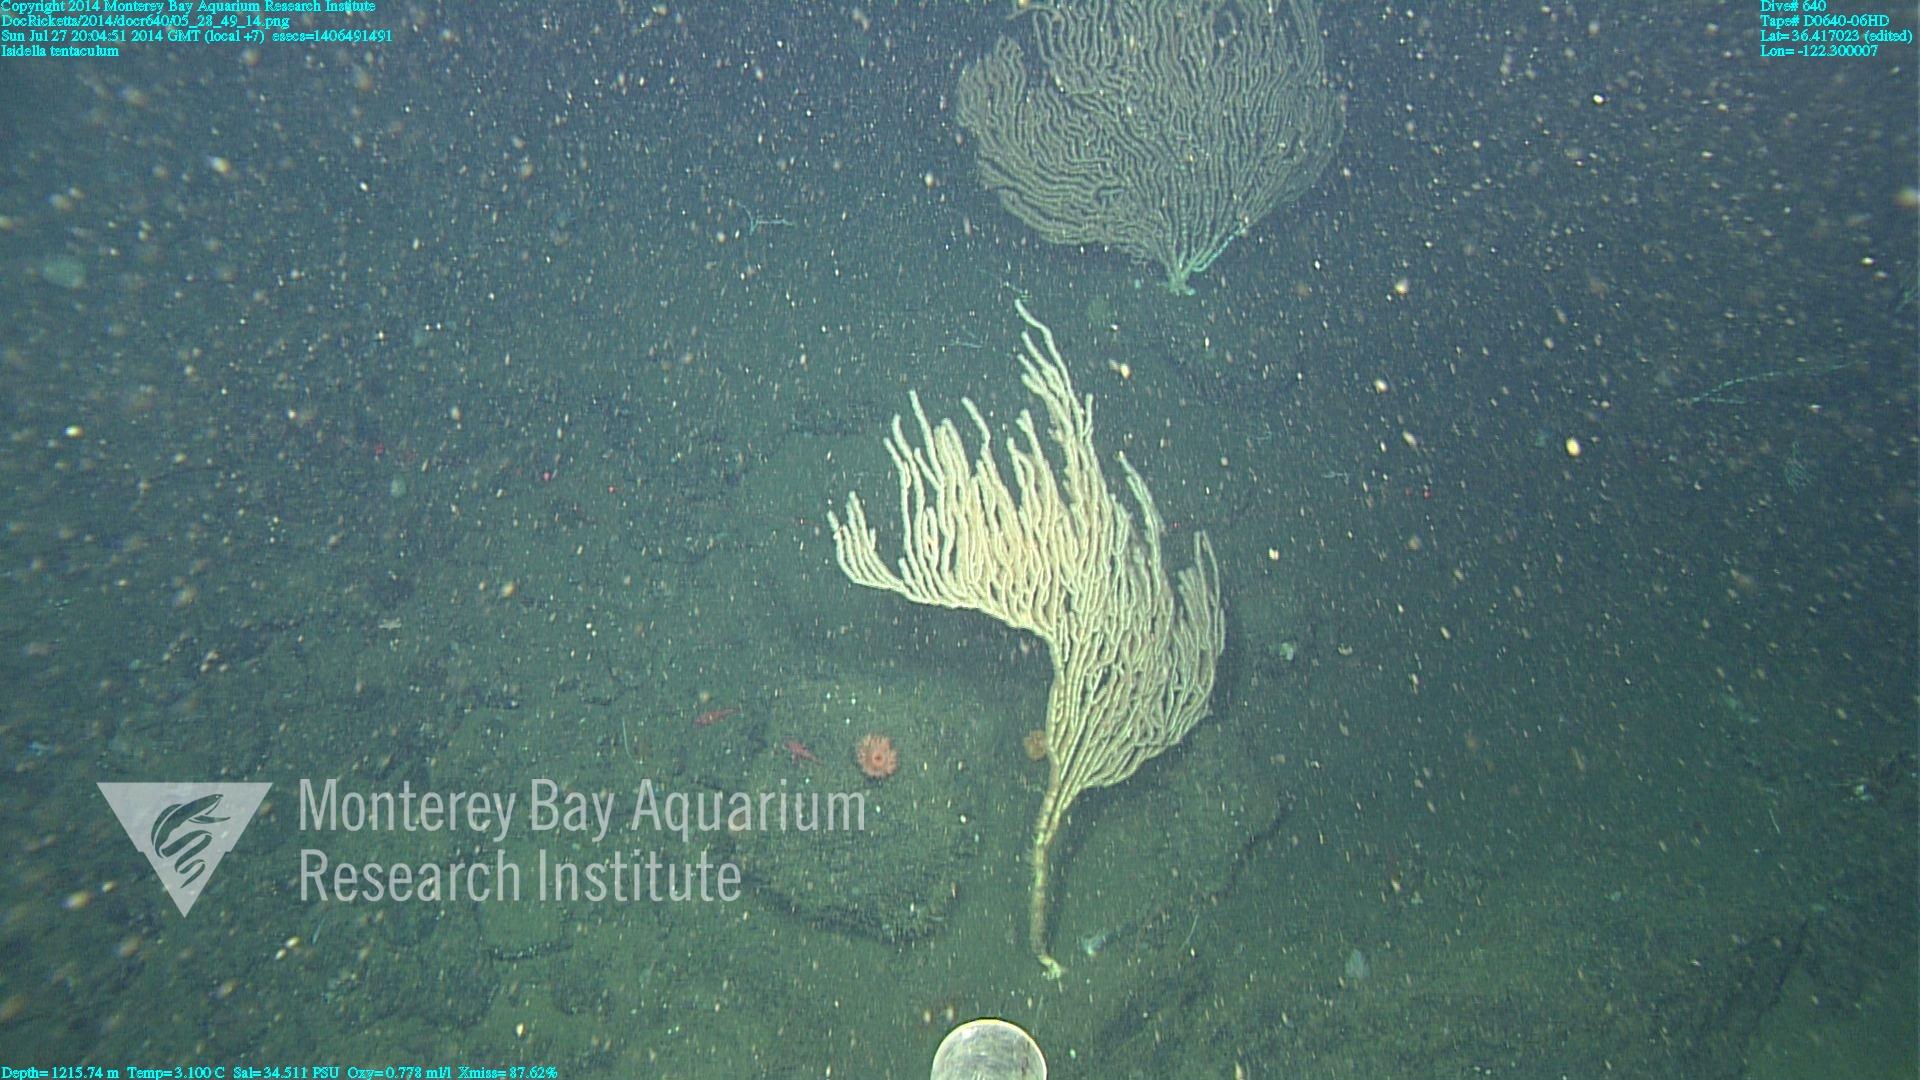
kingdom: Animalia
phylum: Cnidaria
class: Anthozoa
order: Scleralcyonacea
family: Keratoisididae
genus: Isidella
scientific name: Isidella tentaculum
